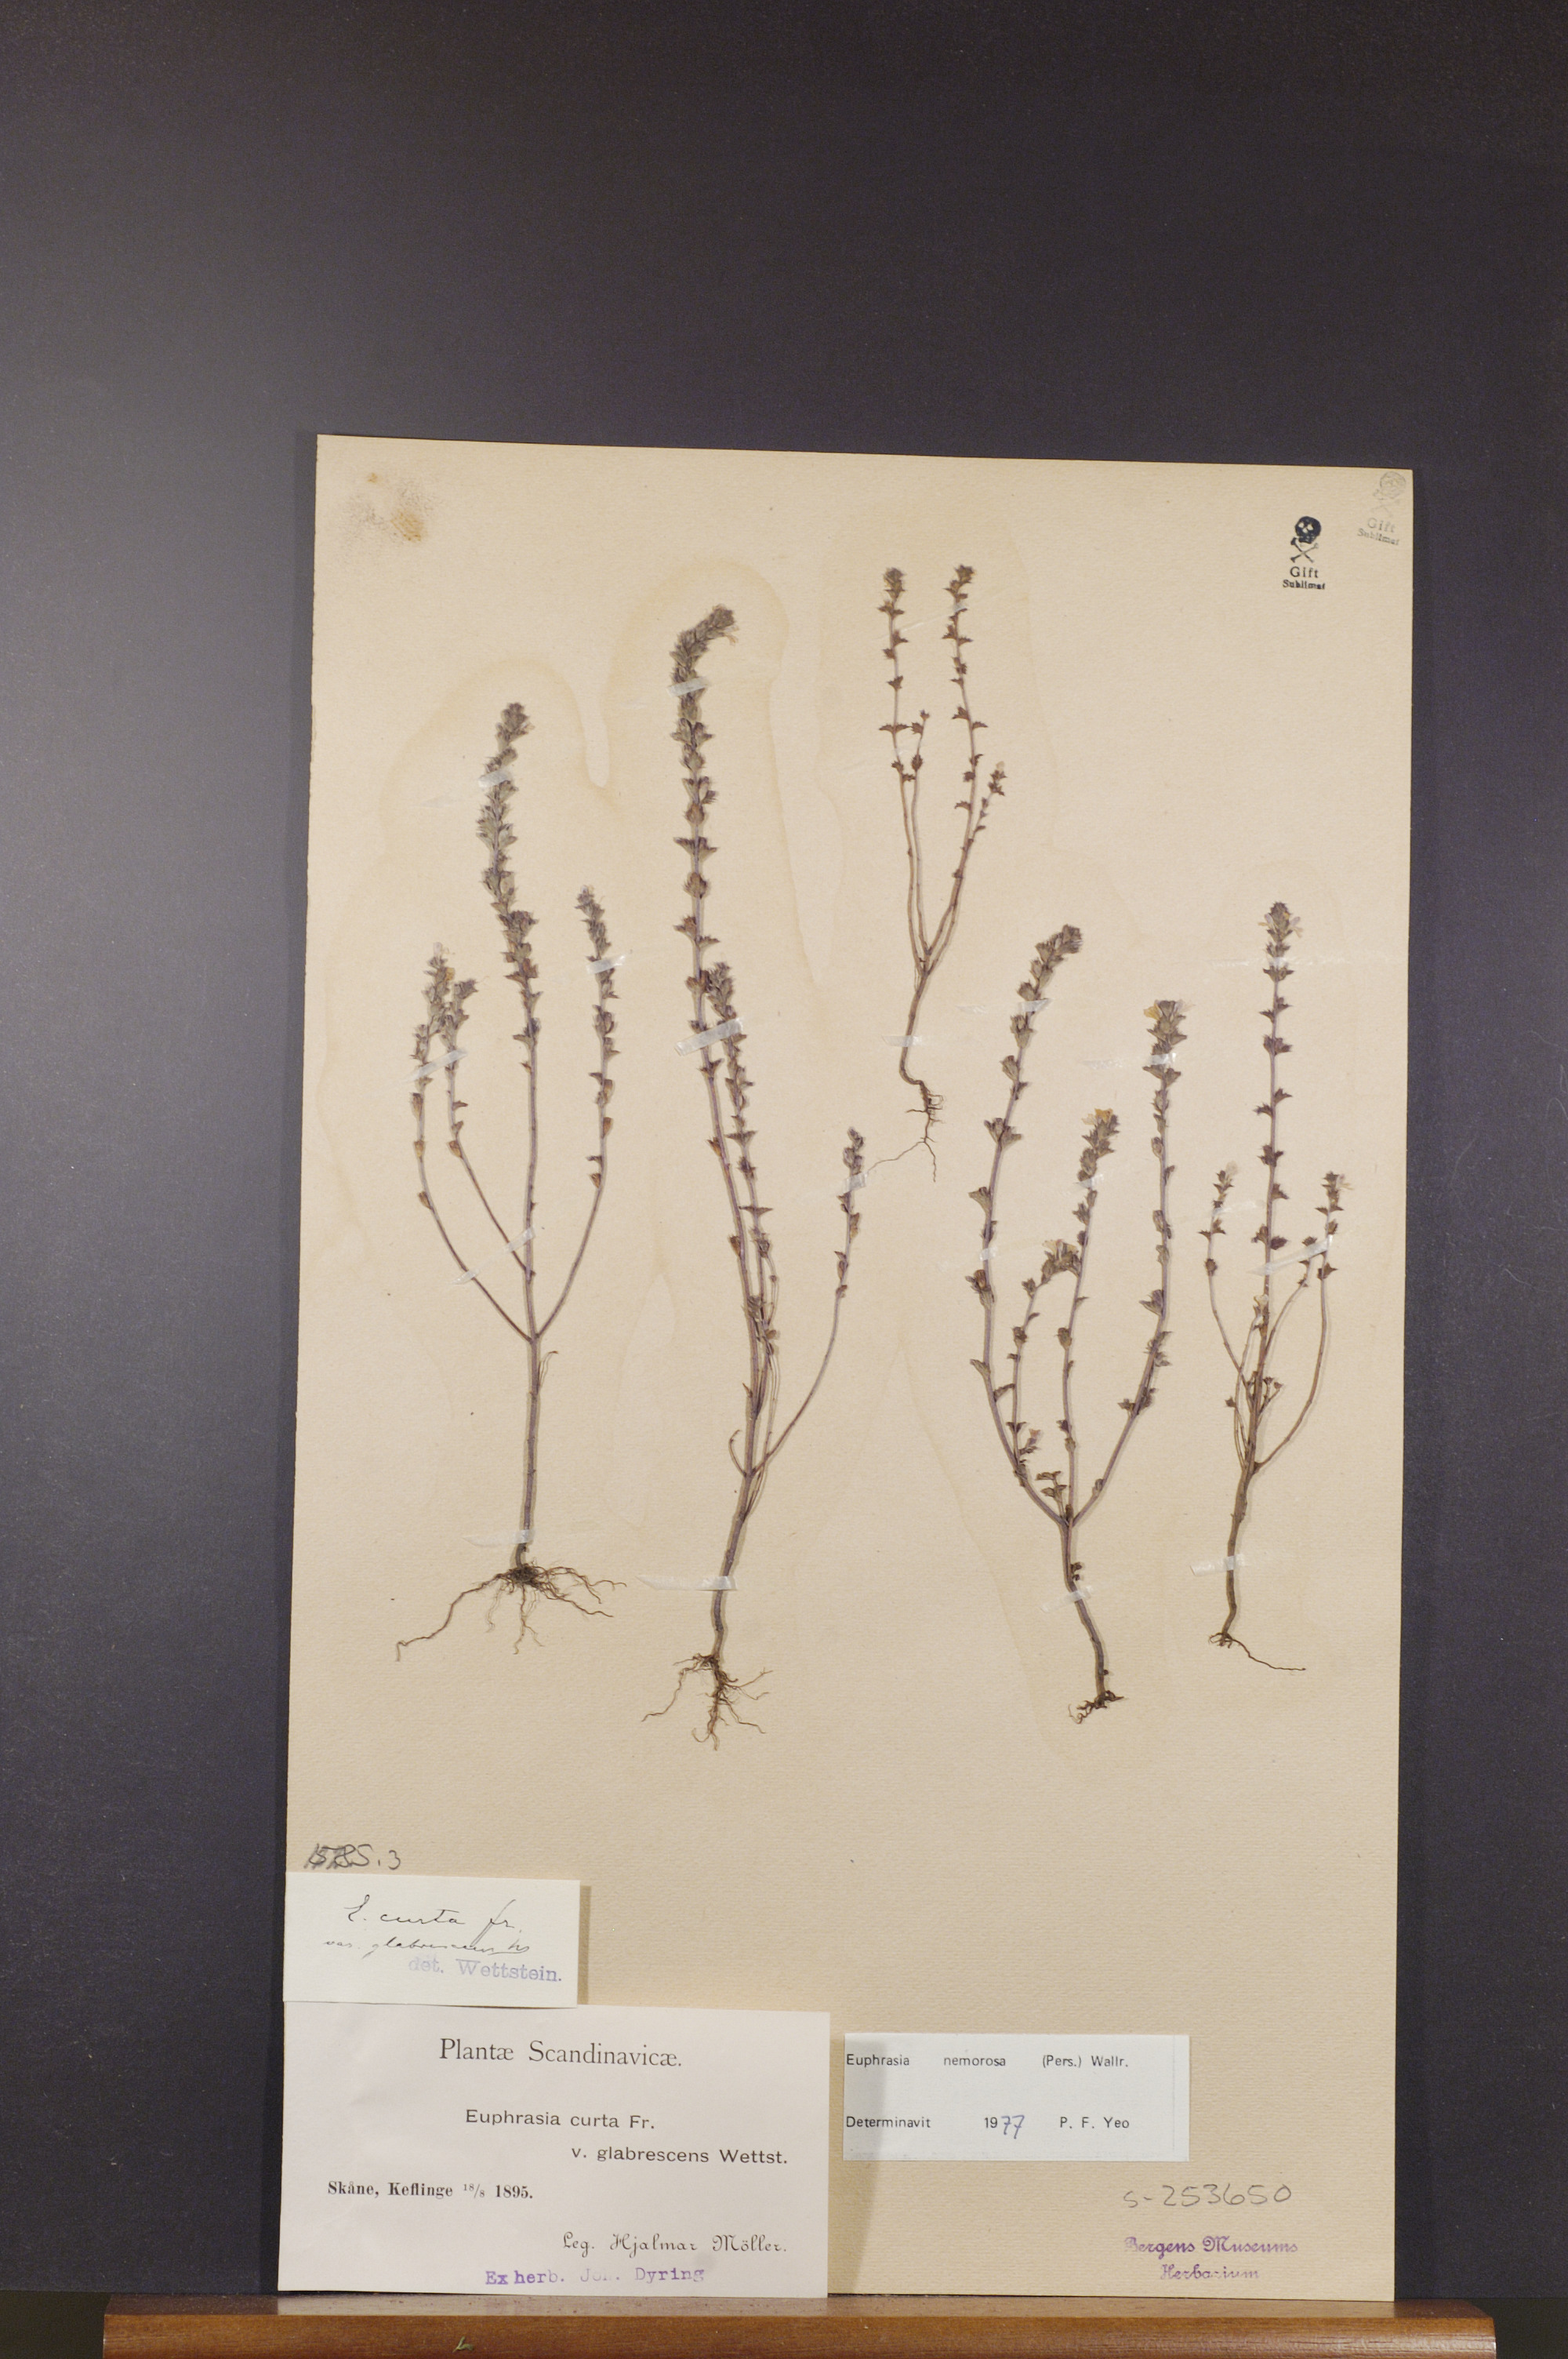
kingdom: Plantae
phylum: Tracheophyta
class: Magnoliopsida
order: Lamiales
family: Orobanchaceae
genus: Euphrasia
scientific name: Euphrasia nemorosa
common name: Common eyebright
